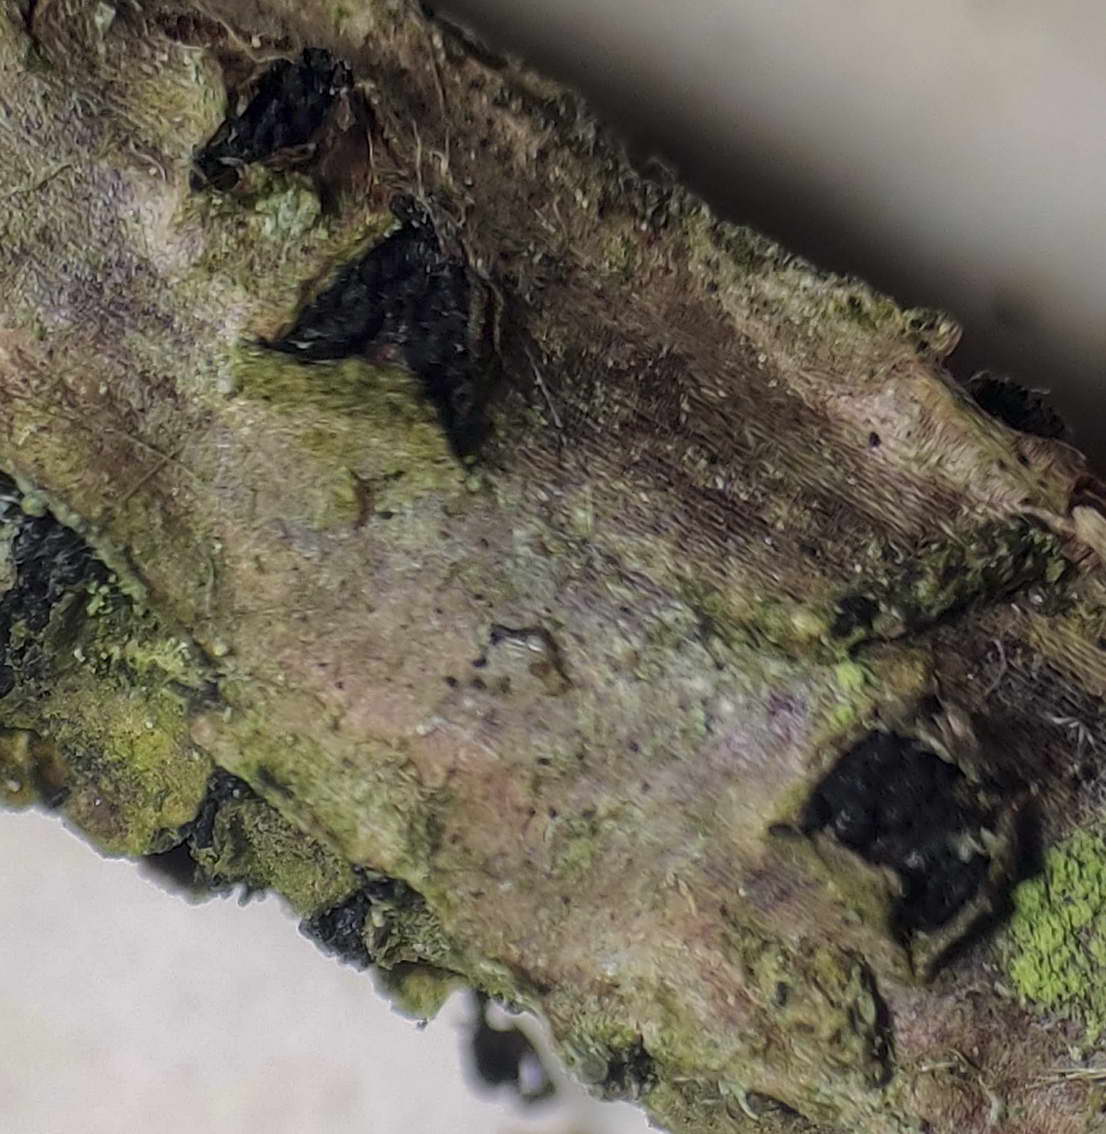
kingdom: Fungi
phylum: Ascomycota
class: Sordariomycetes
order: Diaporthales
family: Diaporthaceae
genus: Diaporthe
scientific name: Diaporthe strumella
